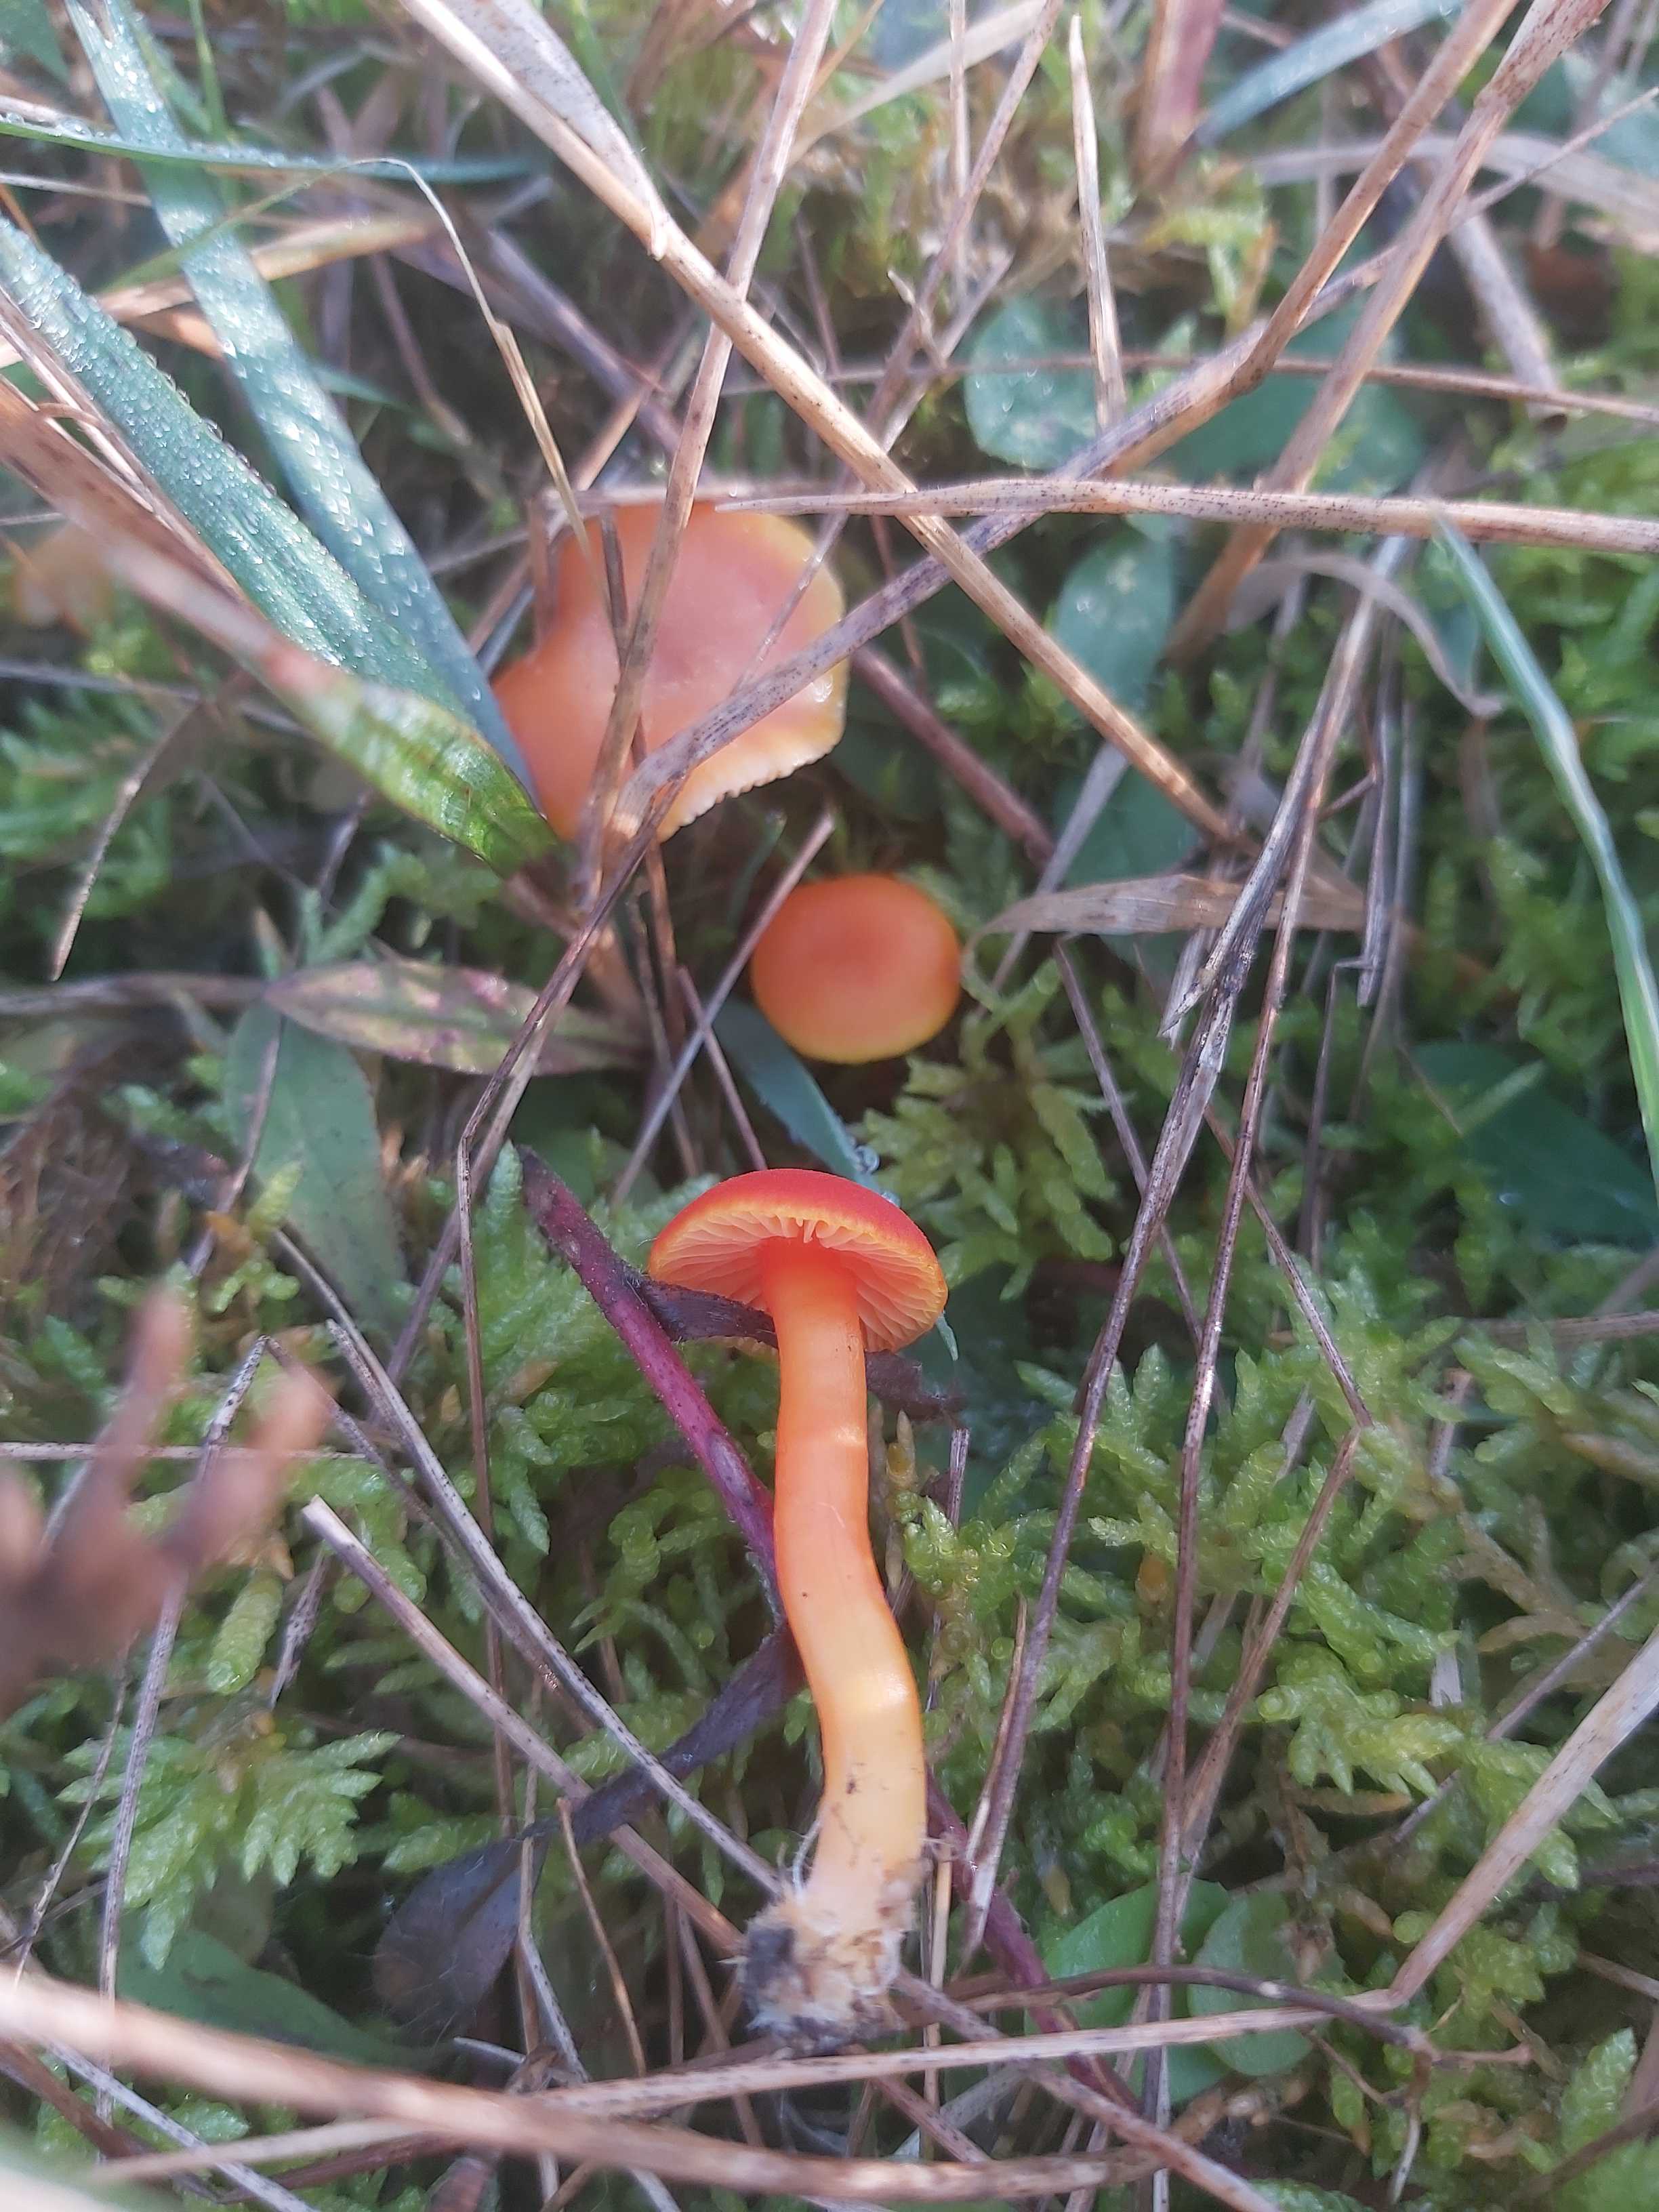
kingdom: Fungi
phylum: Basidiomycota
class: Agaricomycetes
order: Agaricales
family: Hygrophoraceae
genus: Hygrocybe
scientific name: Hygrocybe miniata
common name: mønje-vokshat
